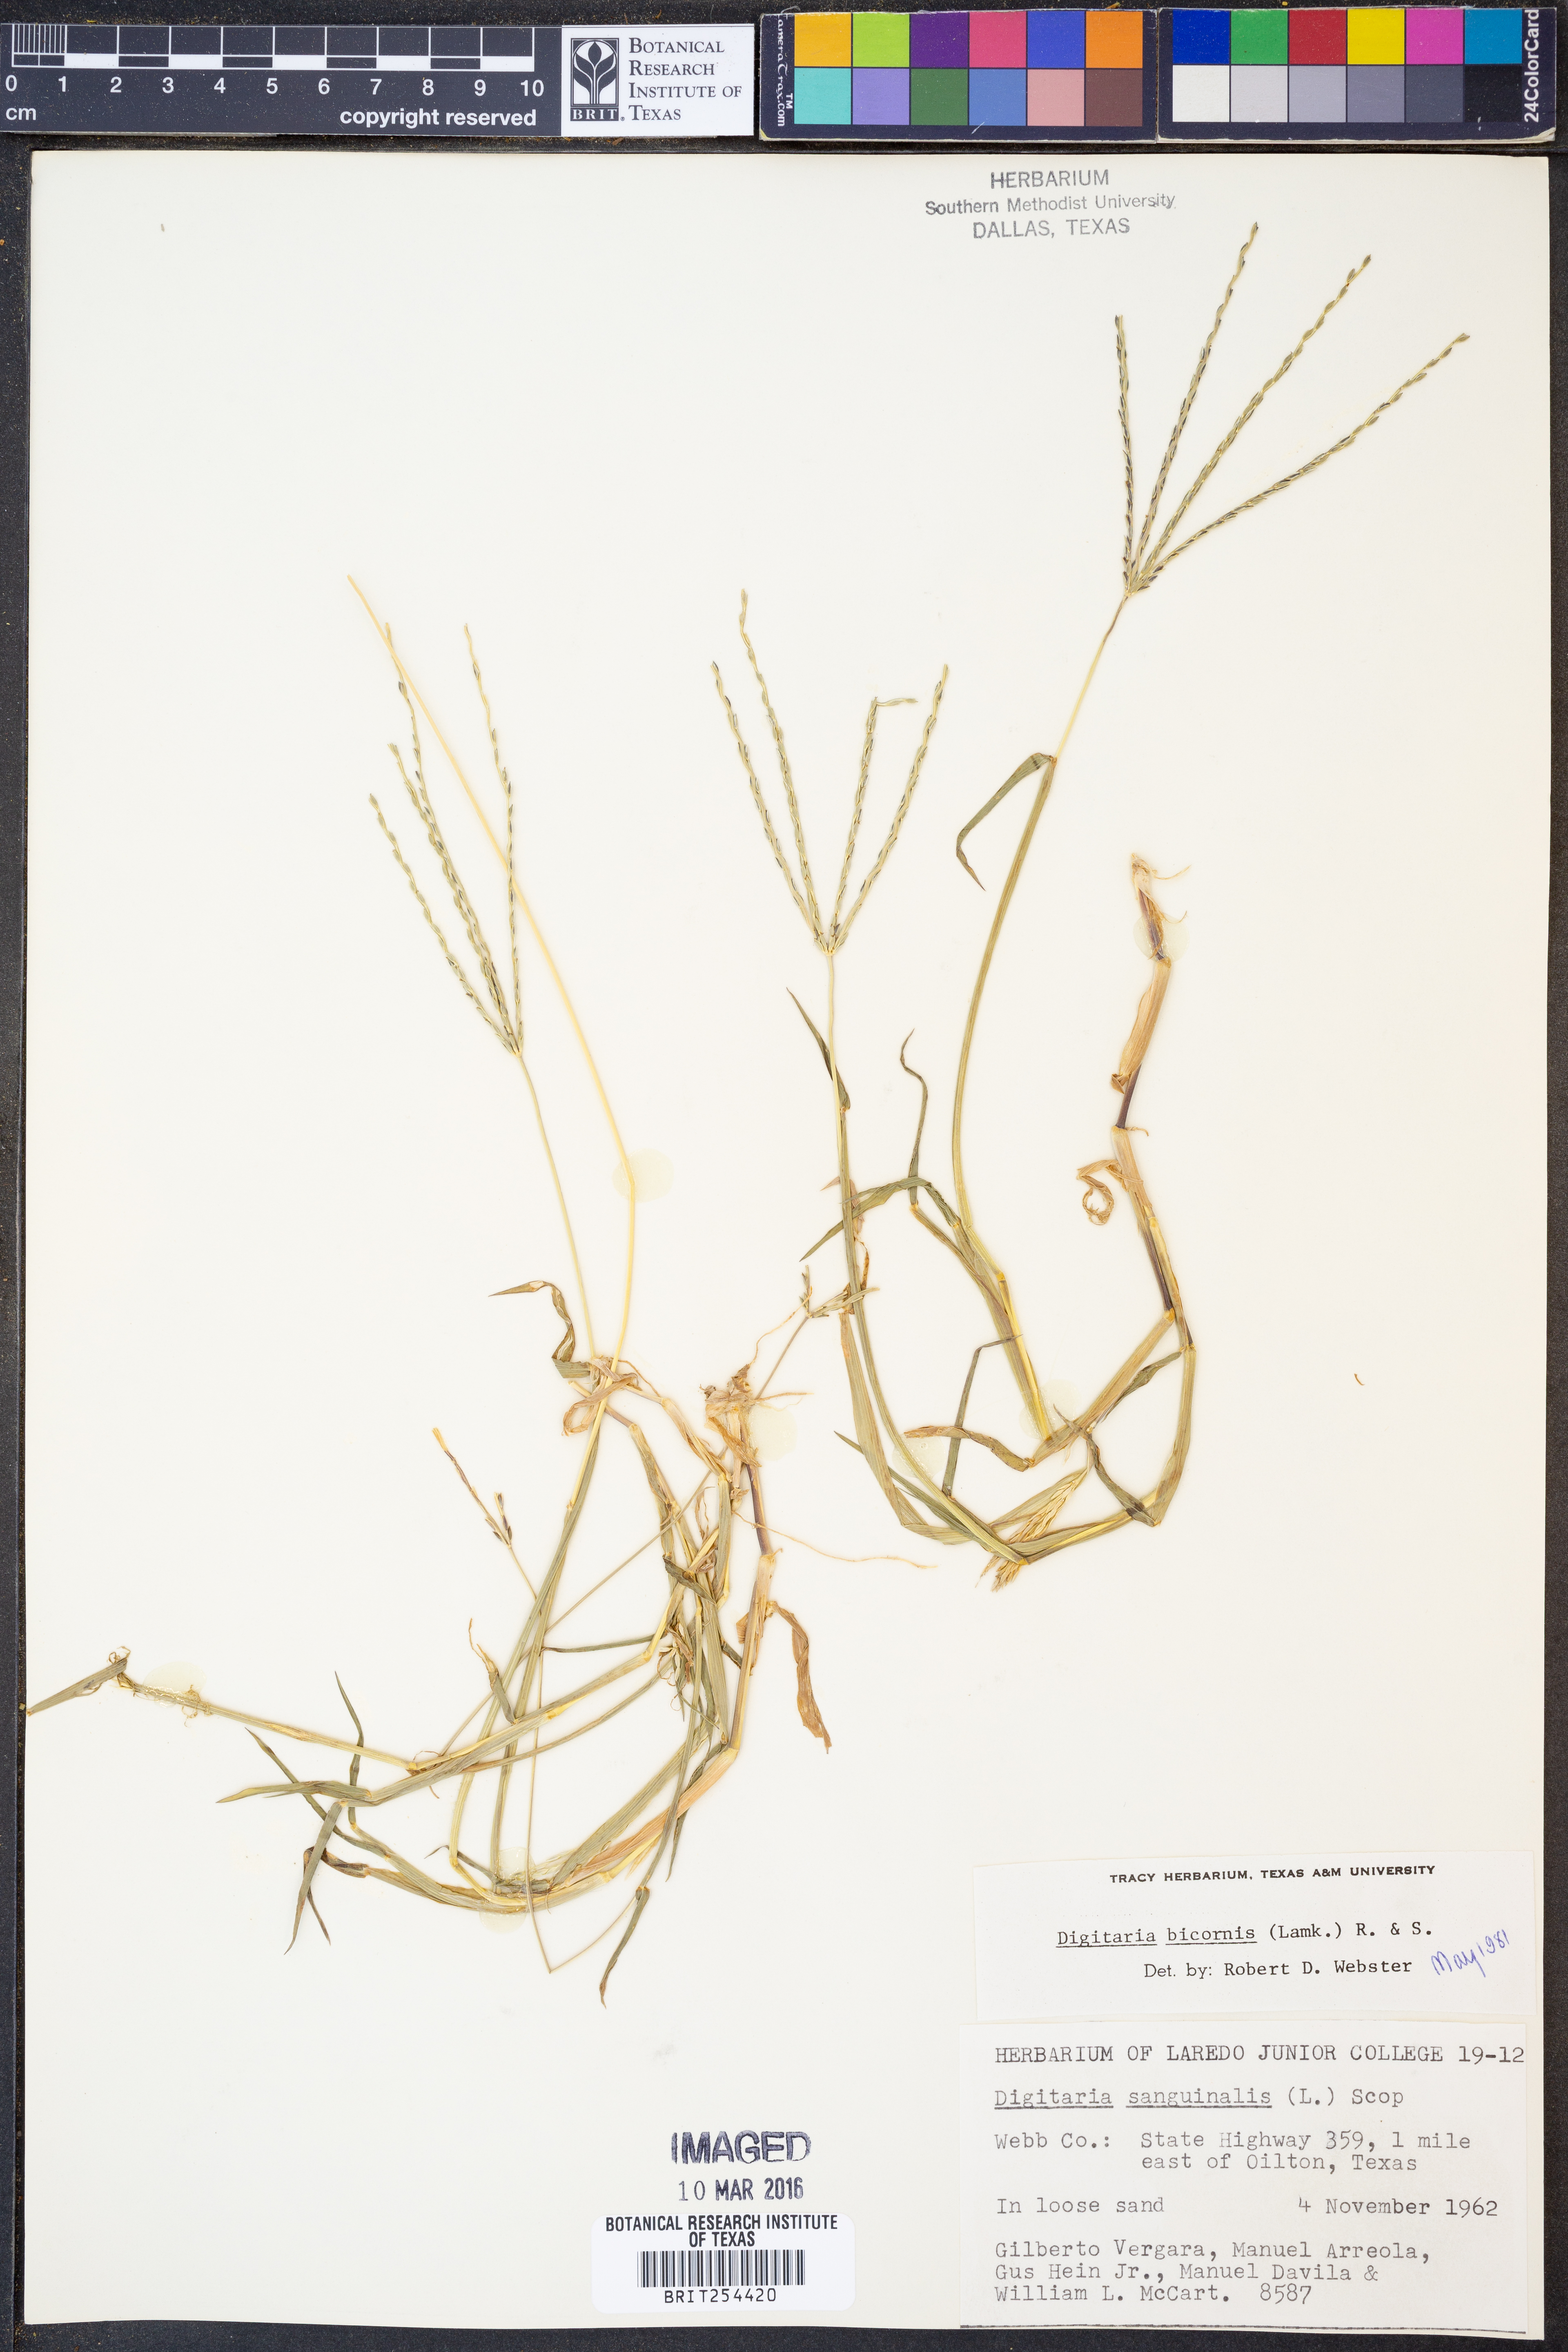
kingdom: Plantae
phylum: Tracheophyta
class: Liliopsida
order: Poales
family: Poaceae
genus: Digitaria
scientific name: Digitaria bicornis
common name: Asian crabgrass
